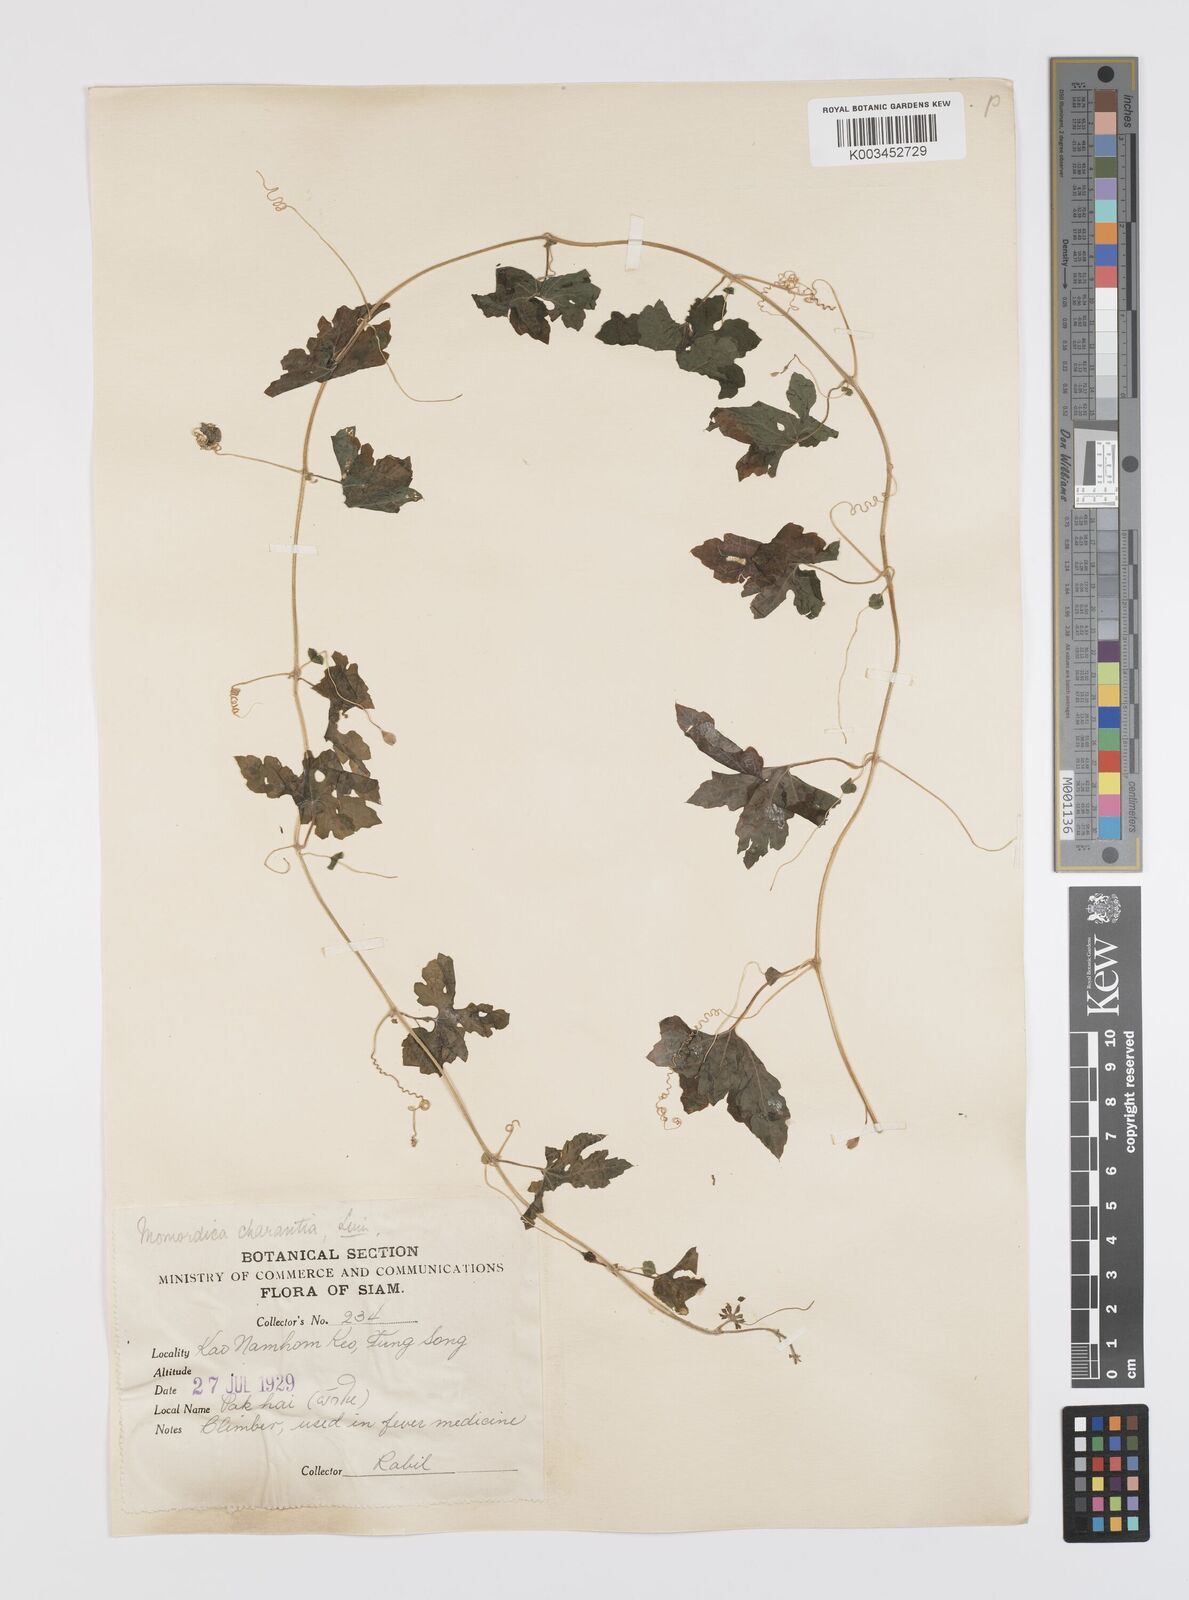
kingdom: Plantae
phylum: Tracheophyta
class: Magnoliopsida
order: Cucurbitales
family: Cucurbitaceae
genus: Momordica
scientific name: Momordica charantia
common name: Balsampear
